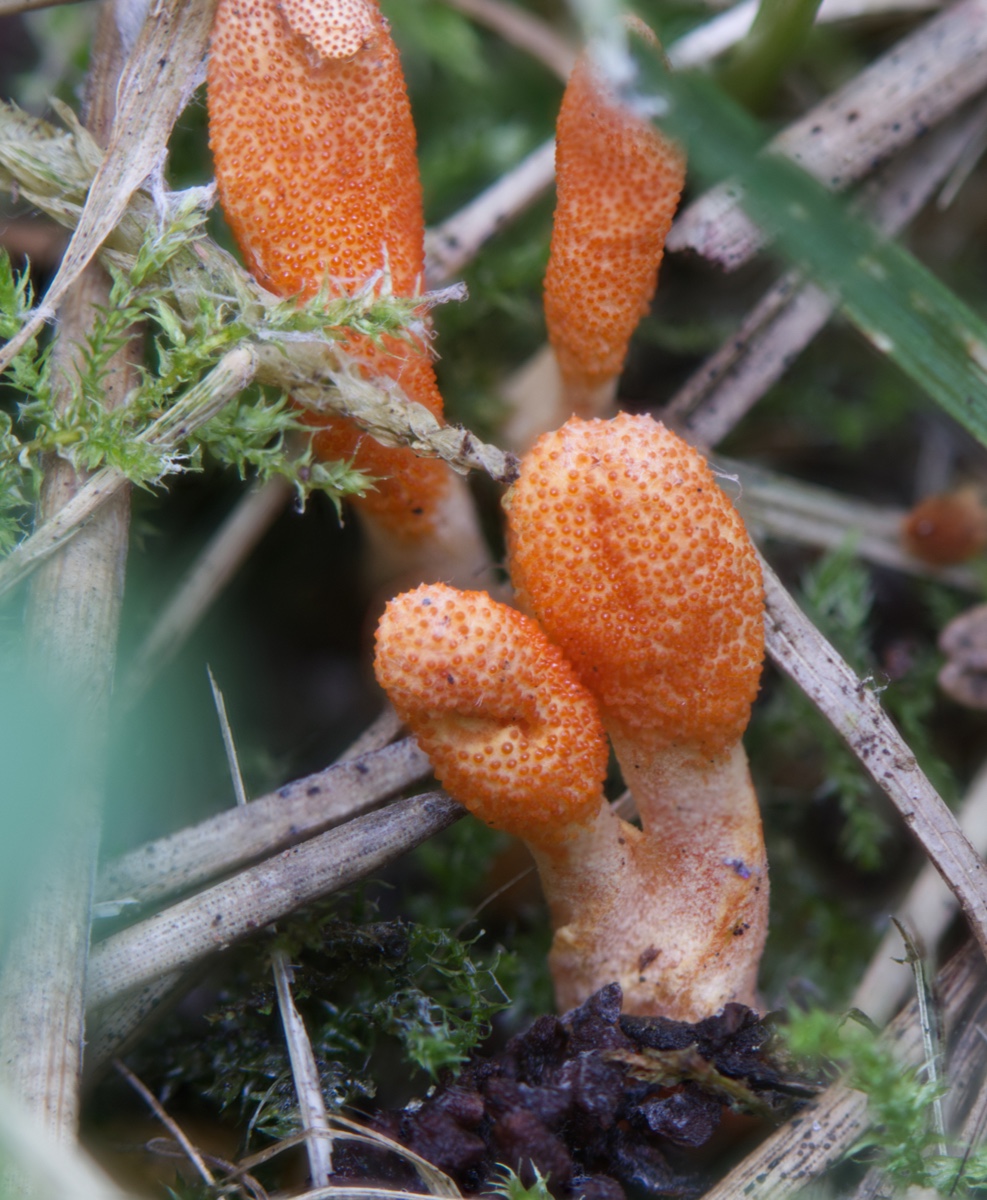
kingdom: Fungi
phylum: Ascomycota
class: Sordariomycetes
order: Hypocreales
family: Cordycipitaceae
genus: Cordyceps
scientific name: Cordyceps militaris
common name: puppe-snyltekølle
